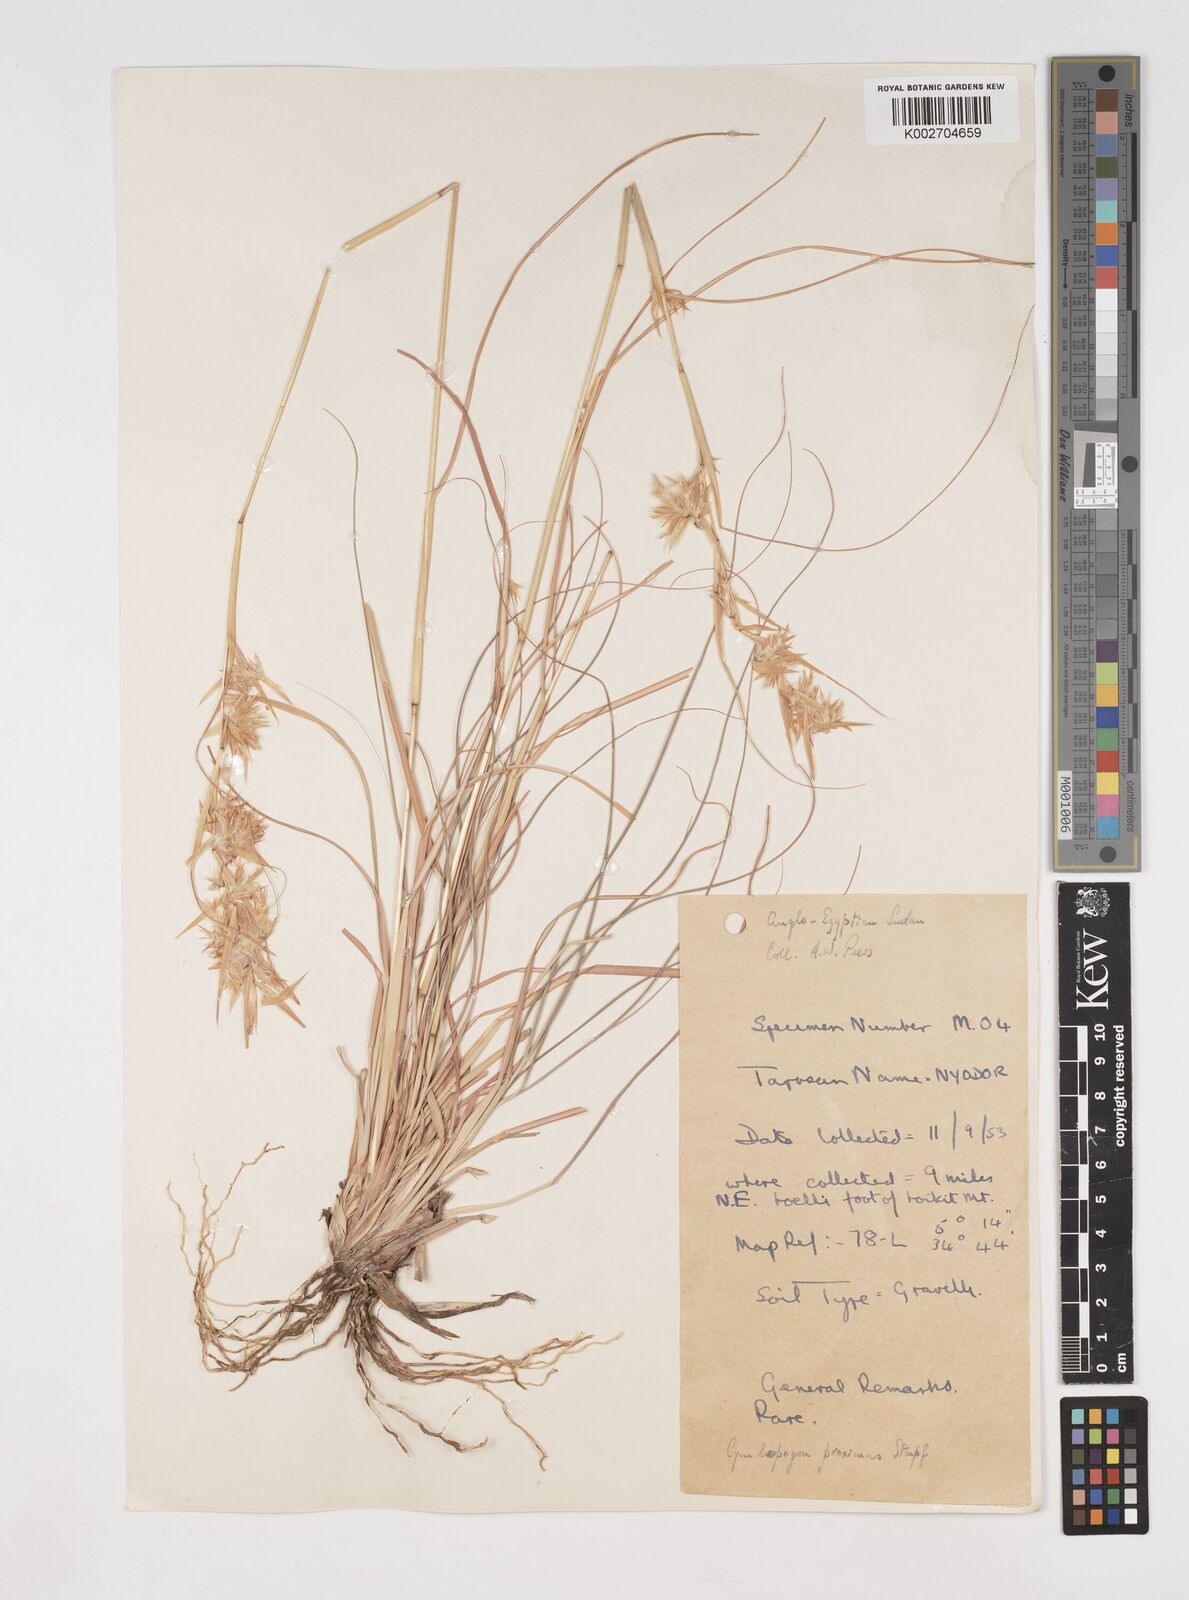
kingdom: Plantae
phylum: Tracheophyta
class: Liliopsida
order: Poales
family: Poaceae
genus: Cymbopogon
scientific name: Cymbopogon schoenanthus
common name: Geranium grass
